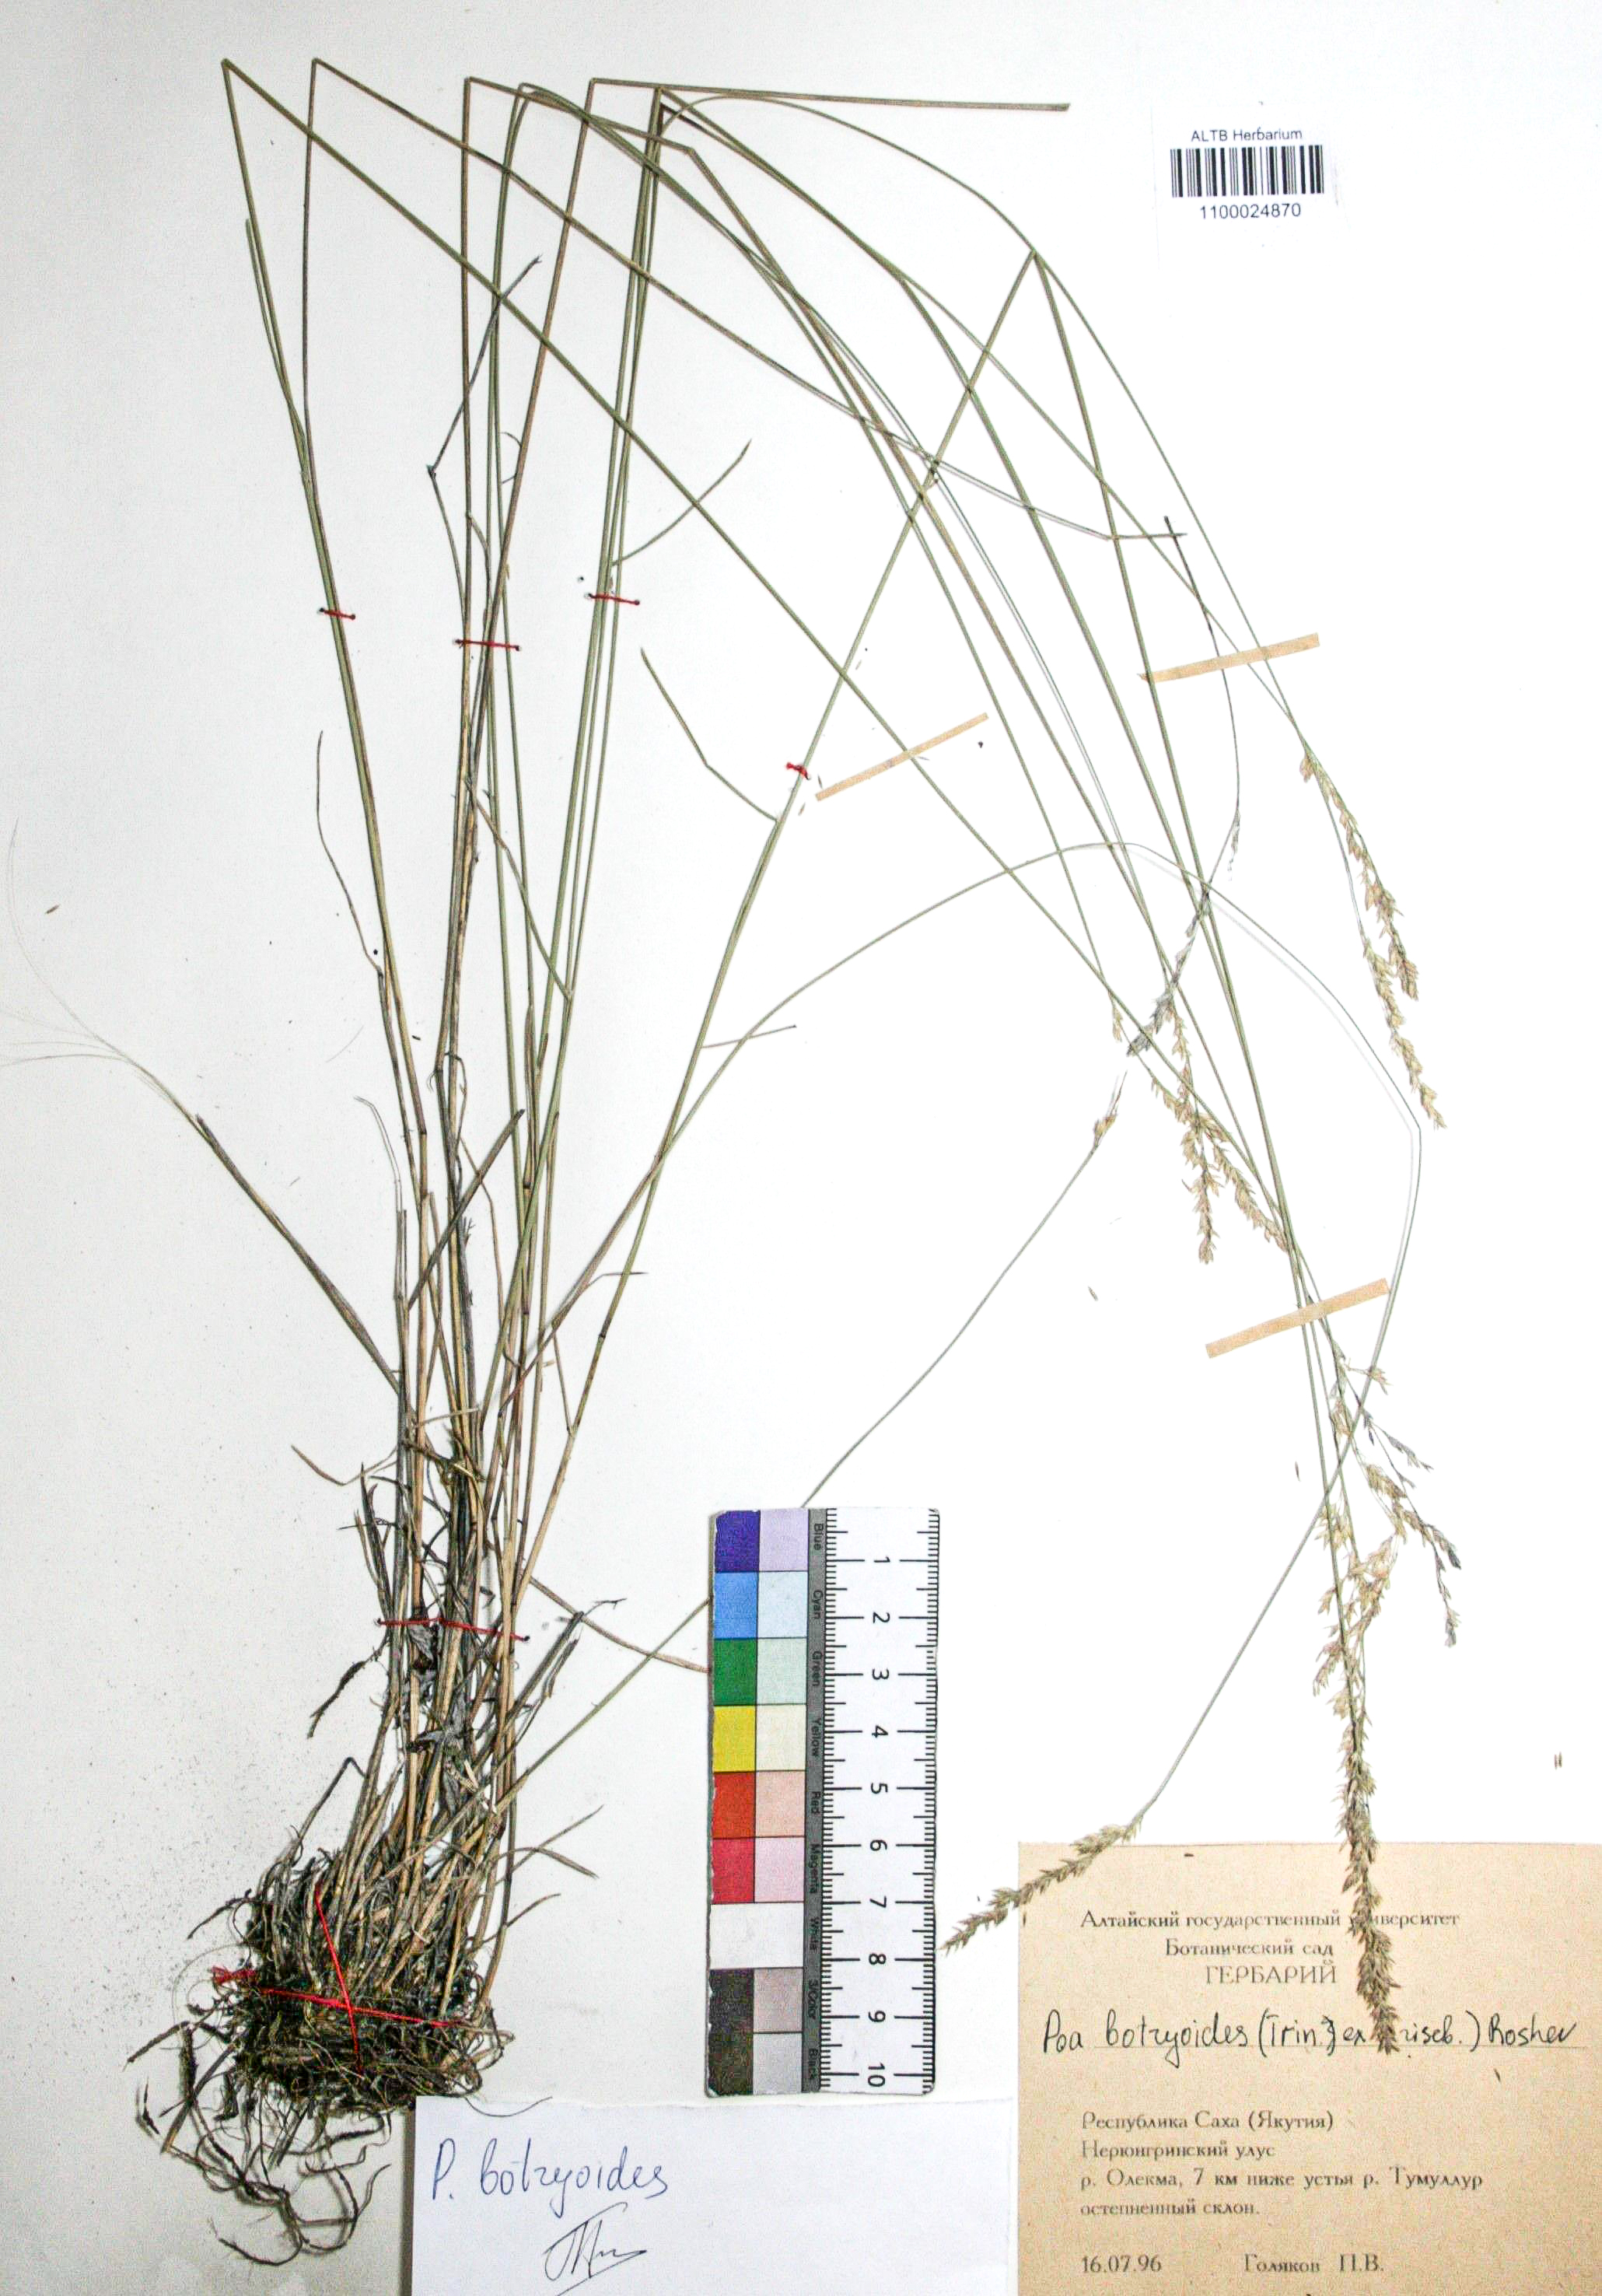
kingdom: Plantae
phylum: Tracheophyta
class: Liliopsida
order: Poales
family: Poaceae
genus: Poa
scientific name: Poa attenuata
